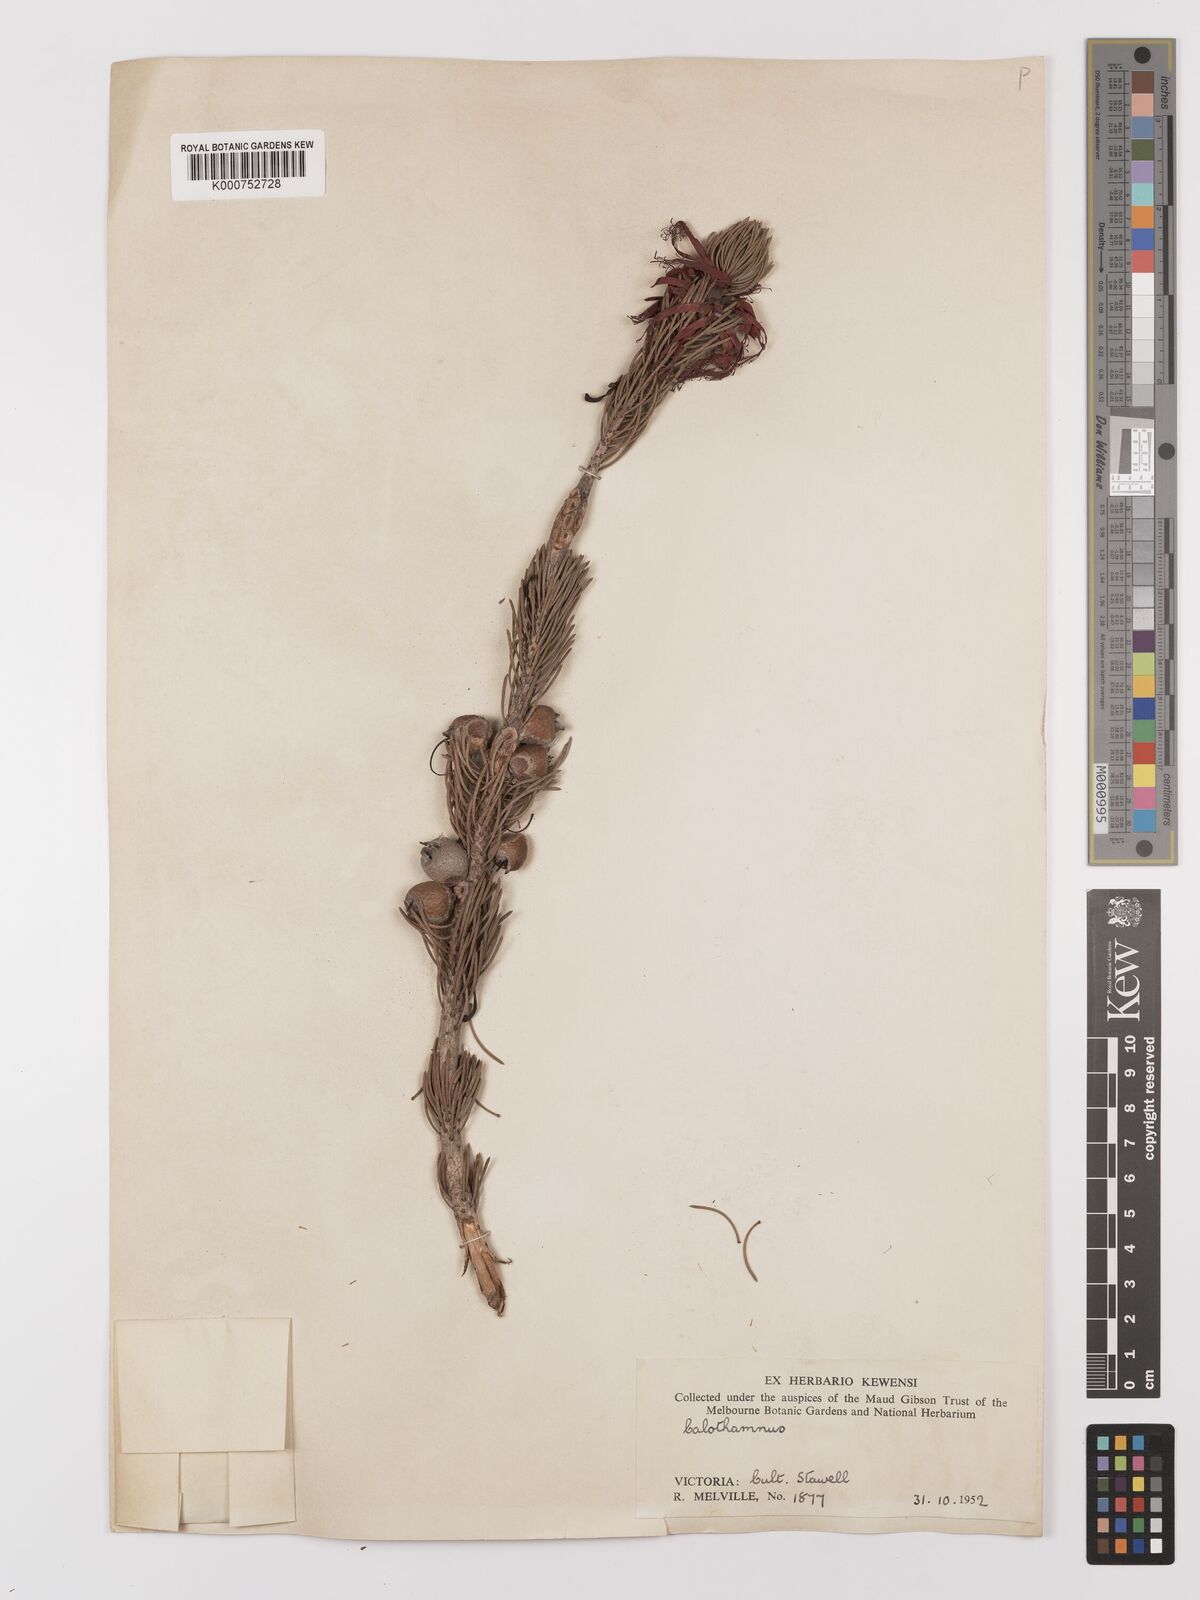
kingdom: Plantae
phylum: Tracheophyta
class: Magnoliopsida
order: Myrtales
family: Myrtaceae
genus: Melaleuca
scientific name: Melaleuca
